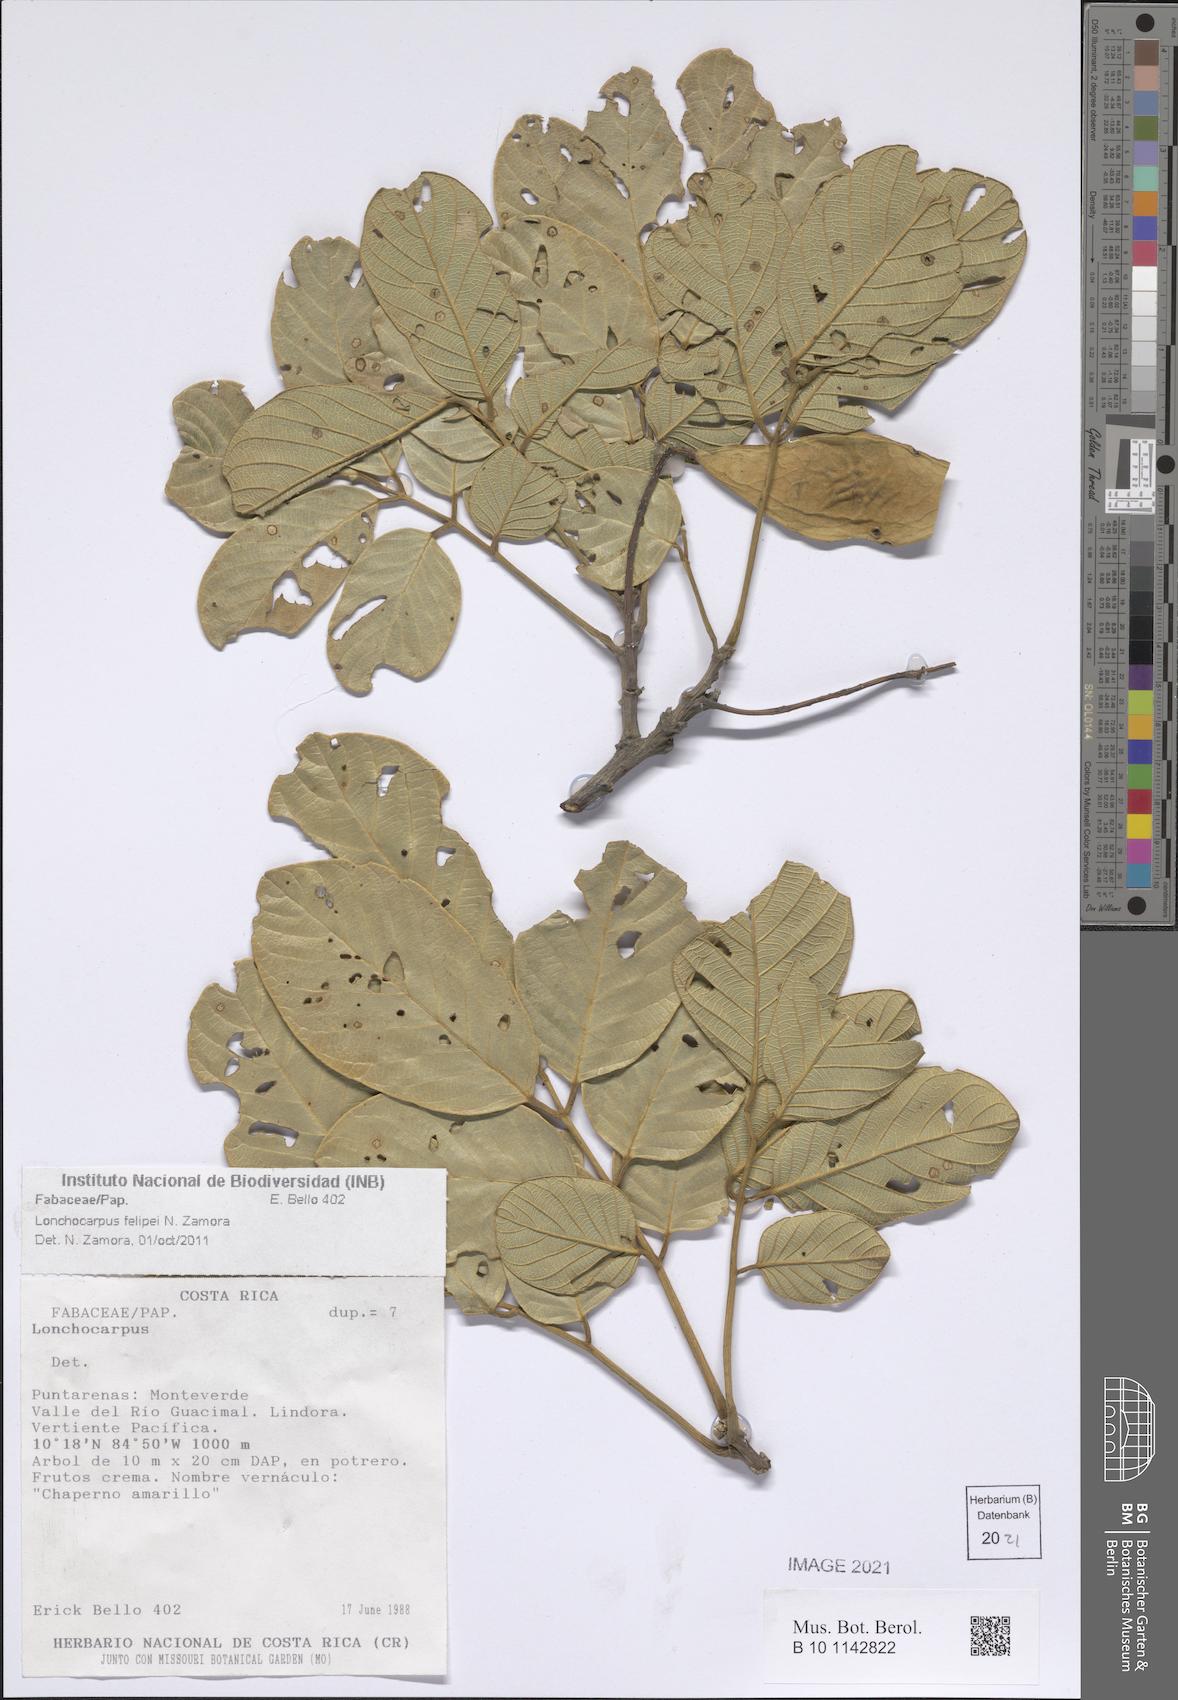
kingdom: Plantae
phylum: Tracheophyta
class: Magnoliopsida
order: Fabales
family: Fabaceae
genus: Lonchocarpus
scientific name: Lonchocarpus felipei
